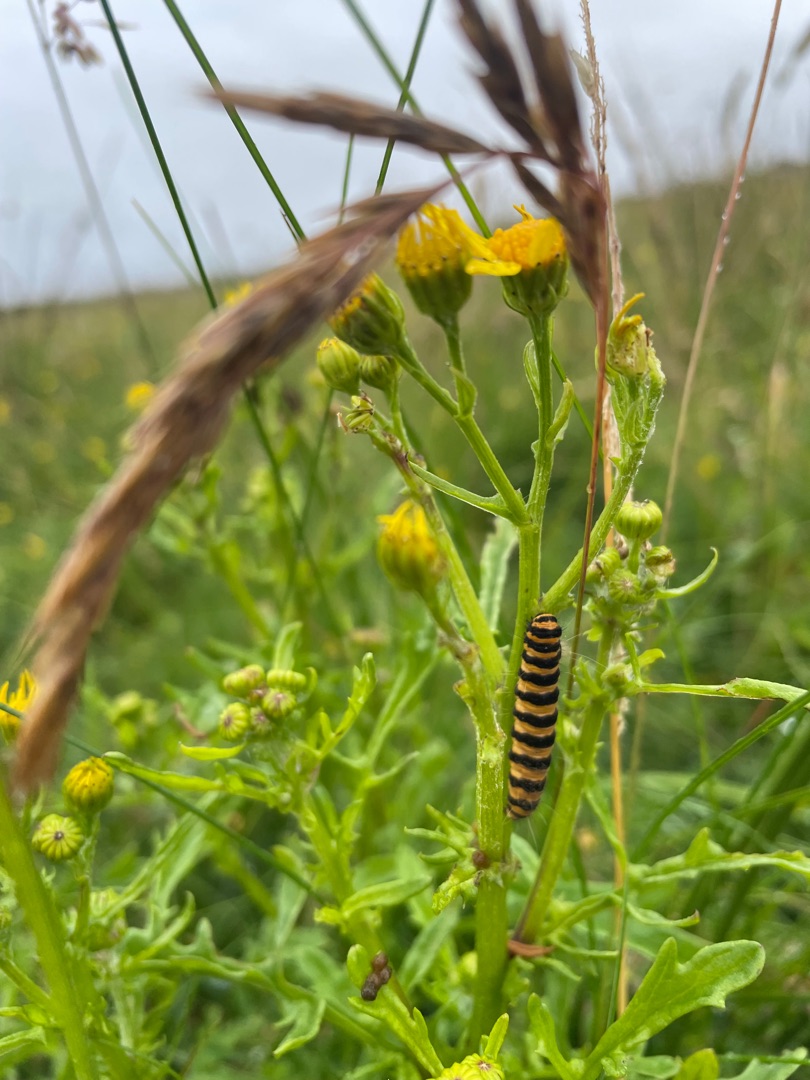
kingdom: Animalia
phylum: Arthropoda
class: Insecta
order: Lepidoptera
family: Erebidae
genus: Tyria
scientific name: Tyria jacobaeae
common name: Blodplet
